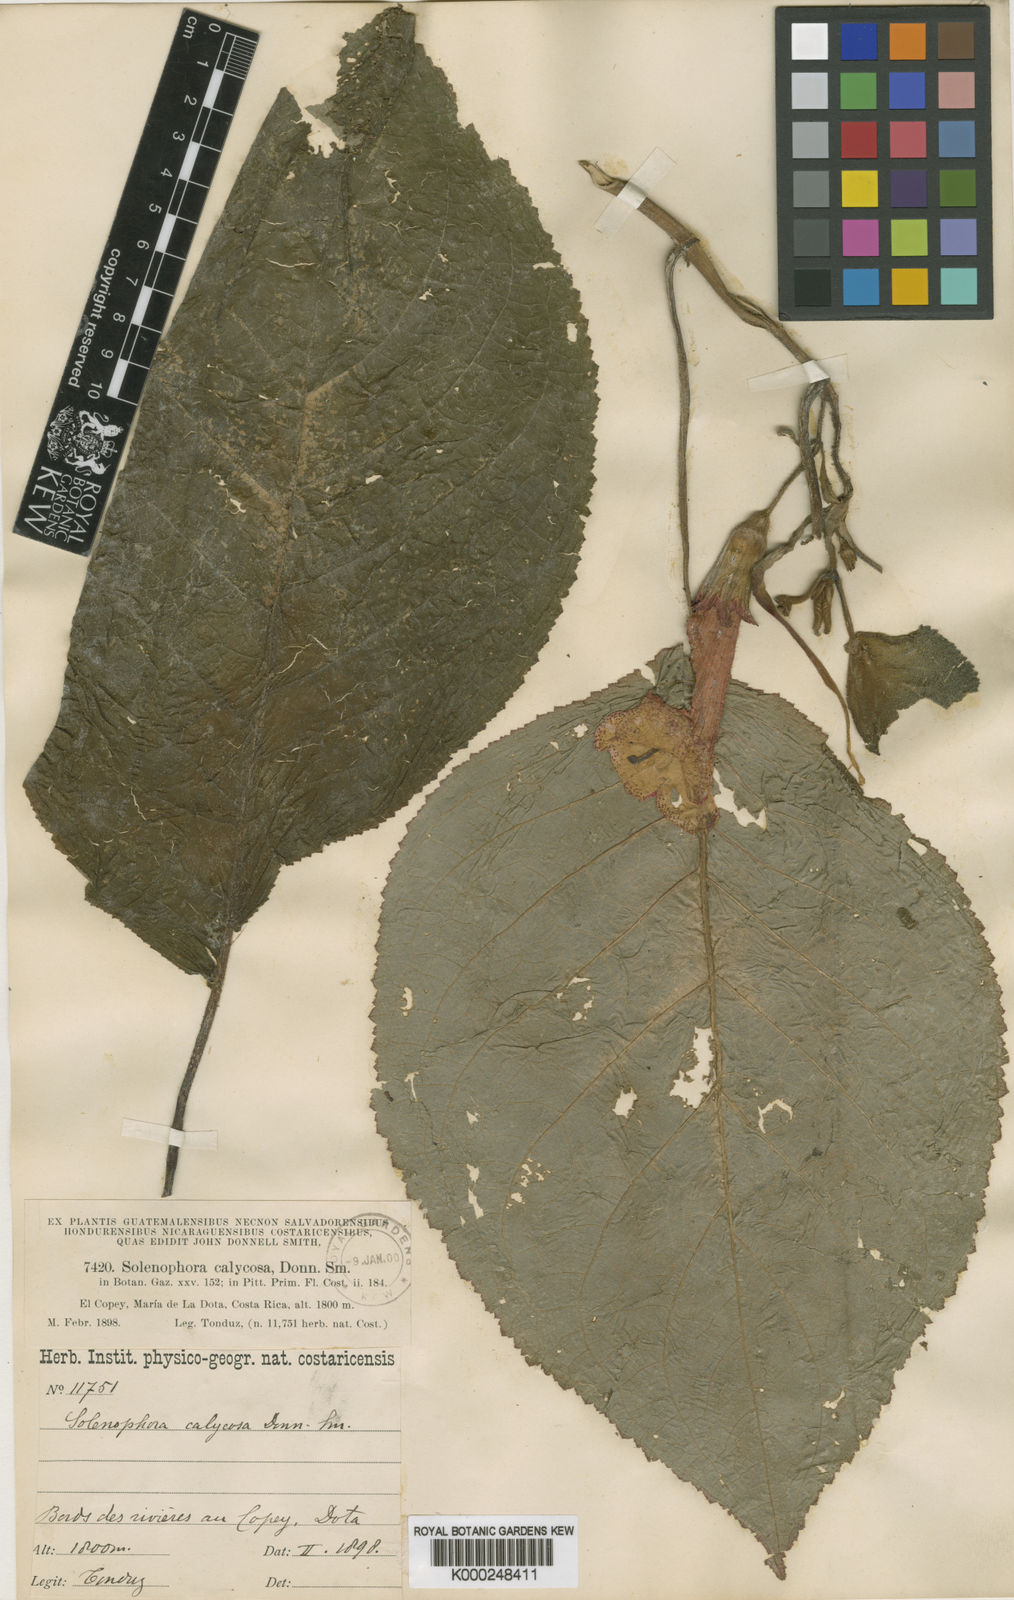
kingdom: Plantae
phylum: Tracheophyta
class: Magnoliopsida
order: Lamiales
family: Gesneriaceae
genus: Solenophora
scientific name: Solenophora calycosa
